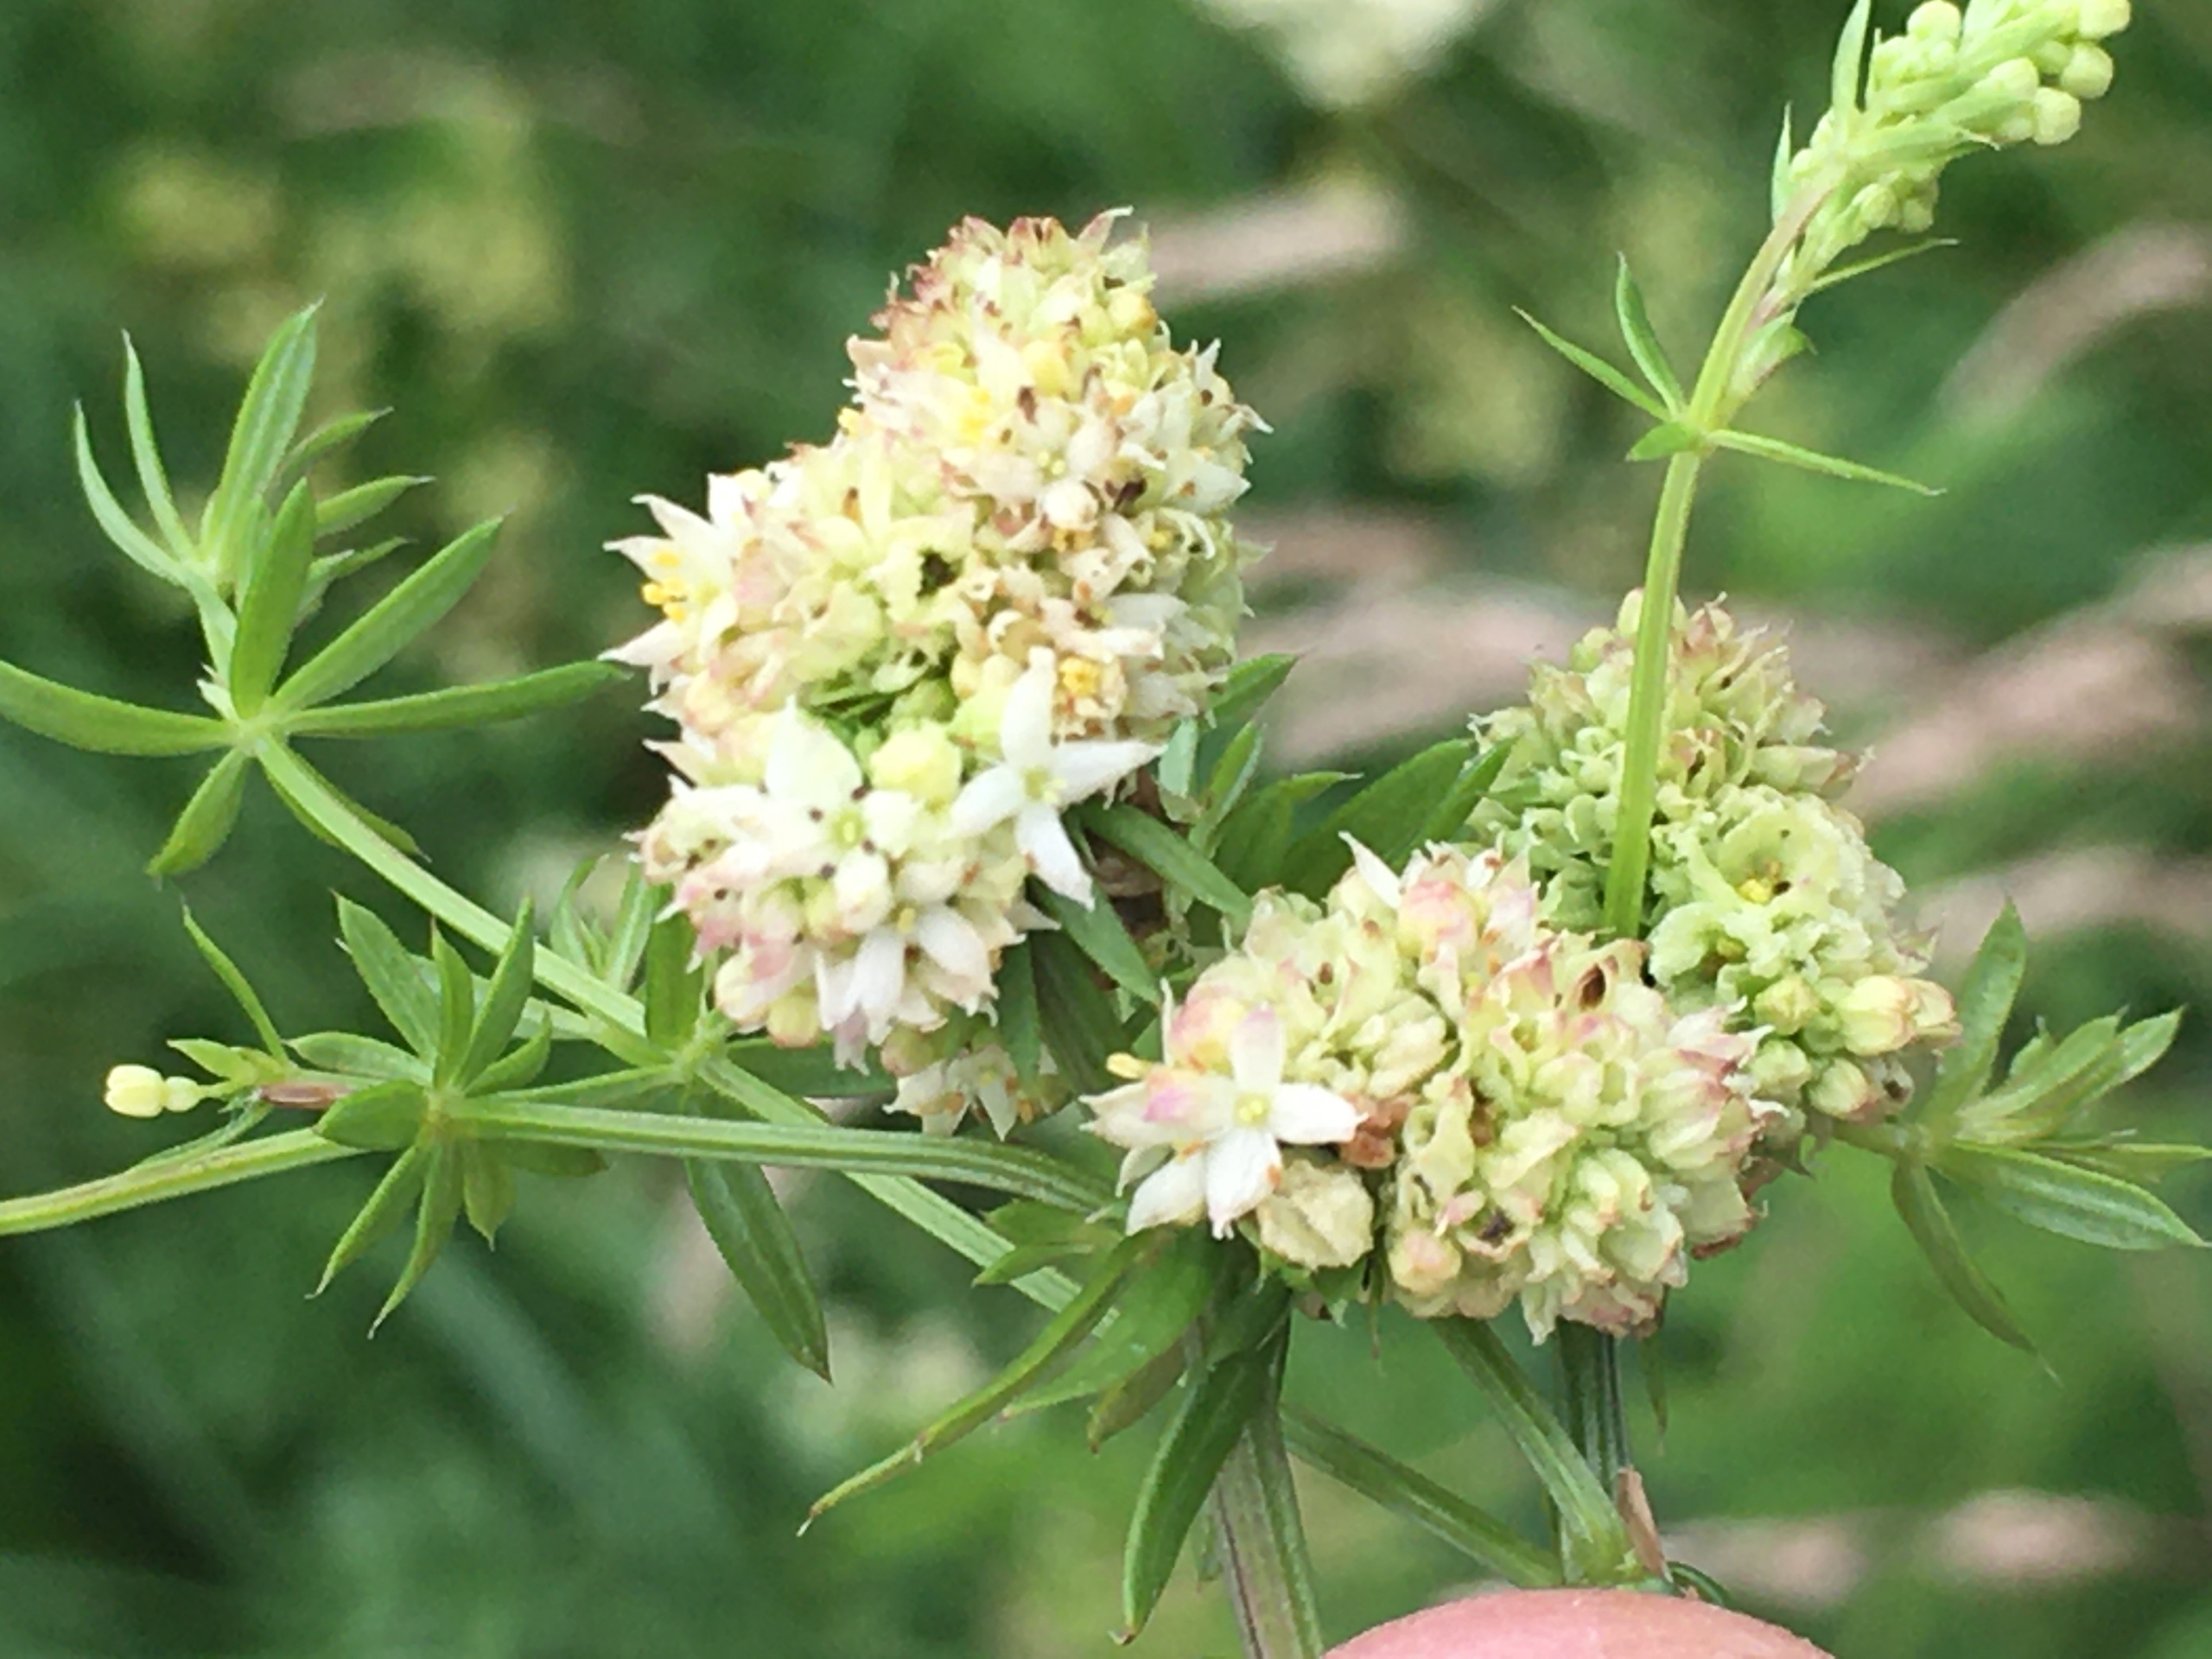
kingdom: Animalia
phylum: Arthropoda
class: Insecta
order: Diptera
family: Cecidomyiidae
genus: Contarinia
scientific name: Contarinia acrocecis
